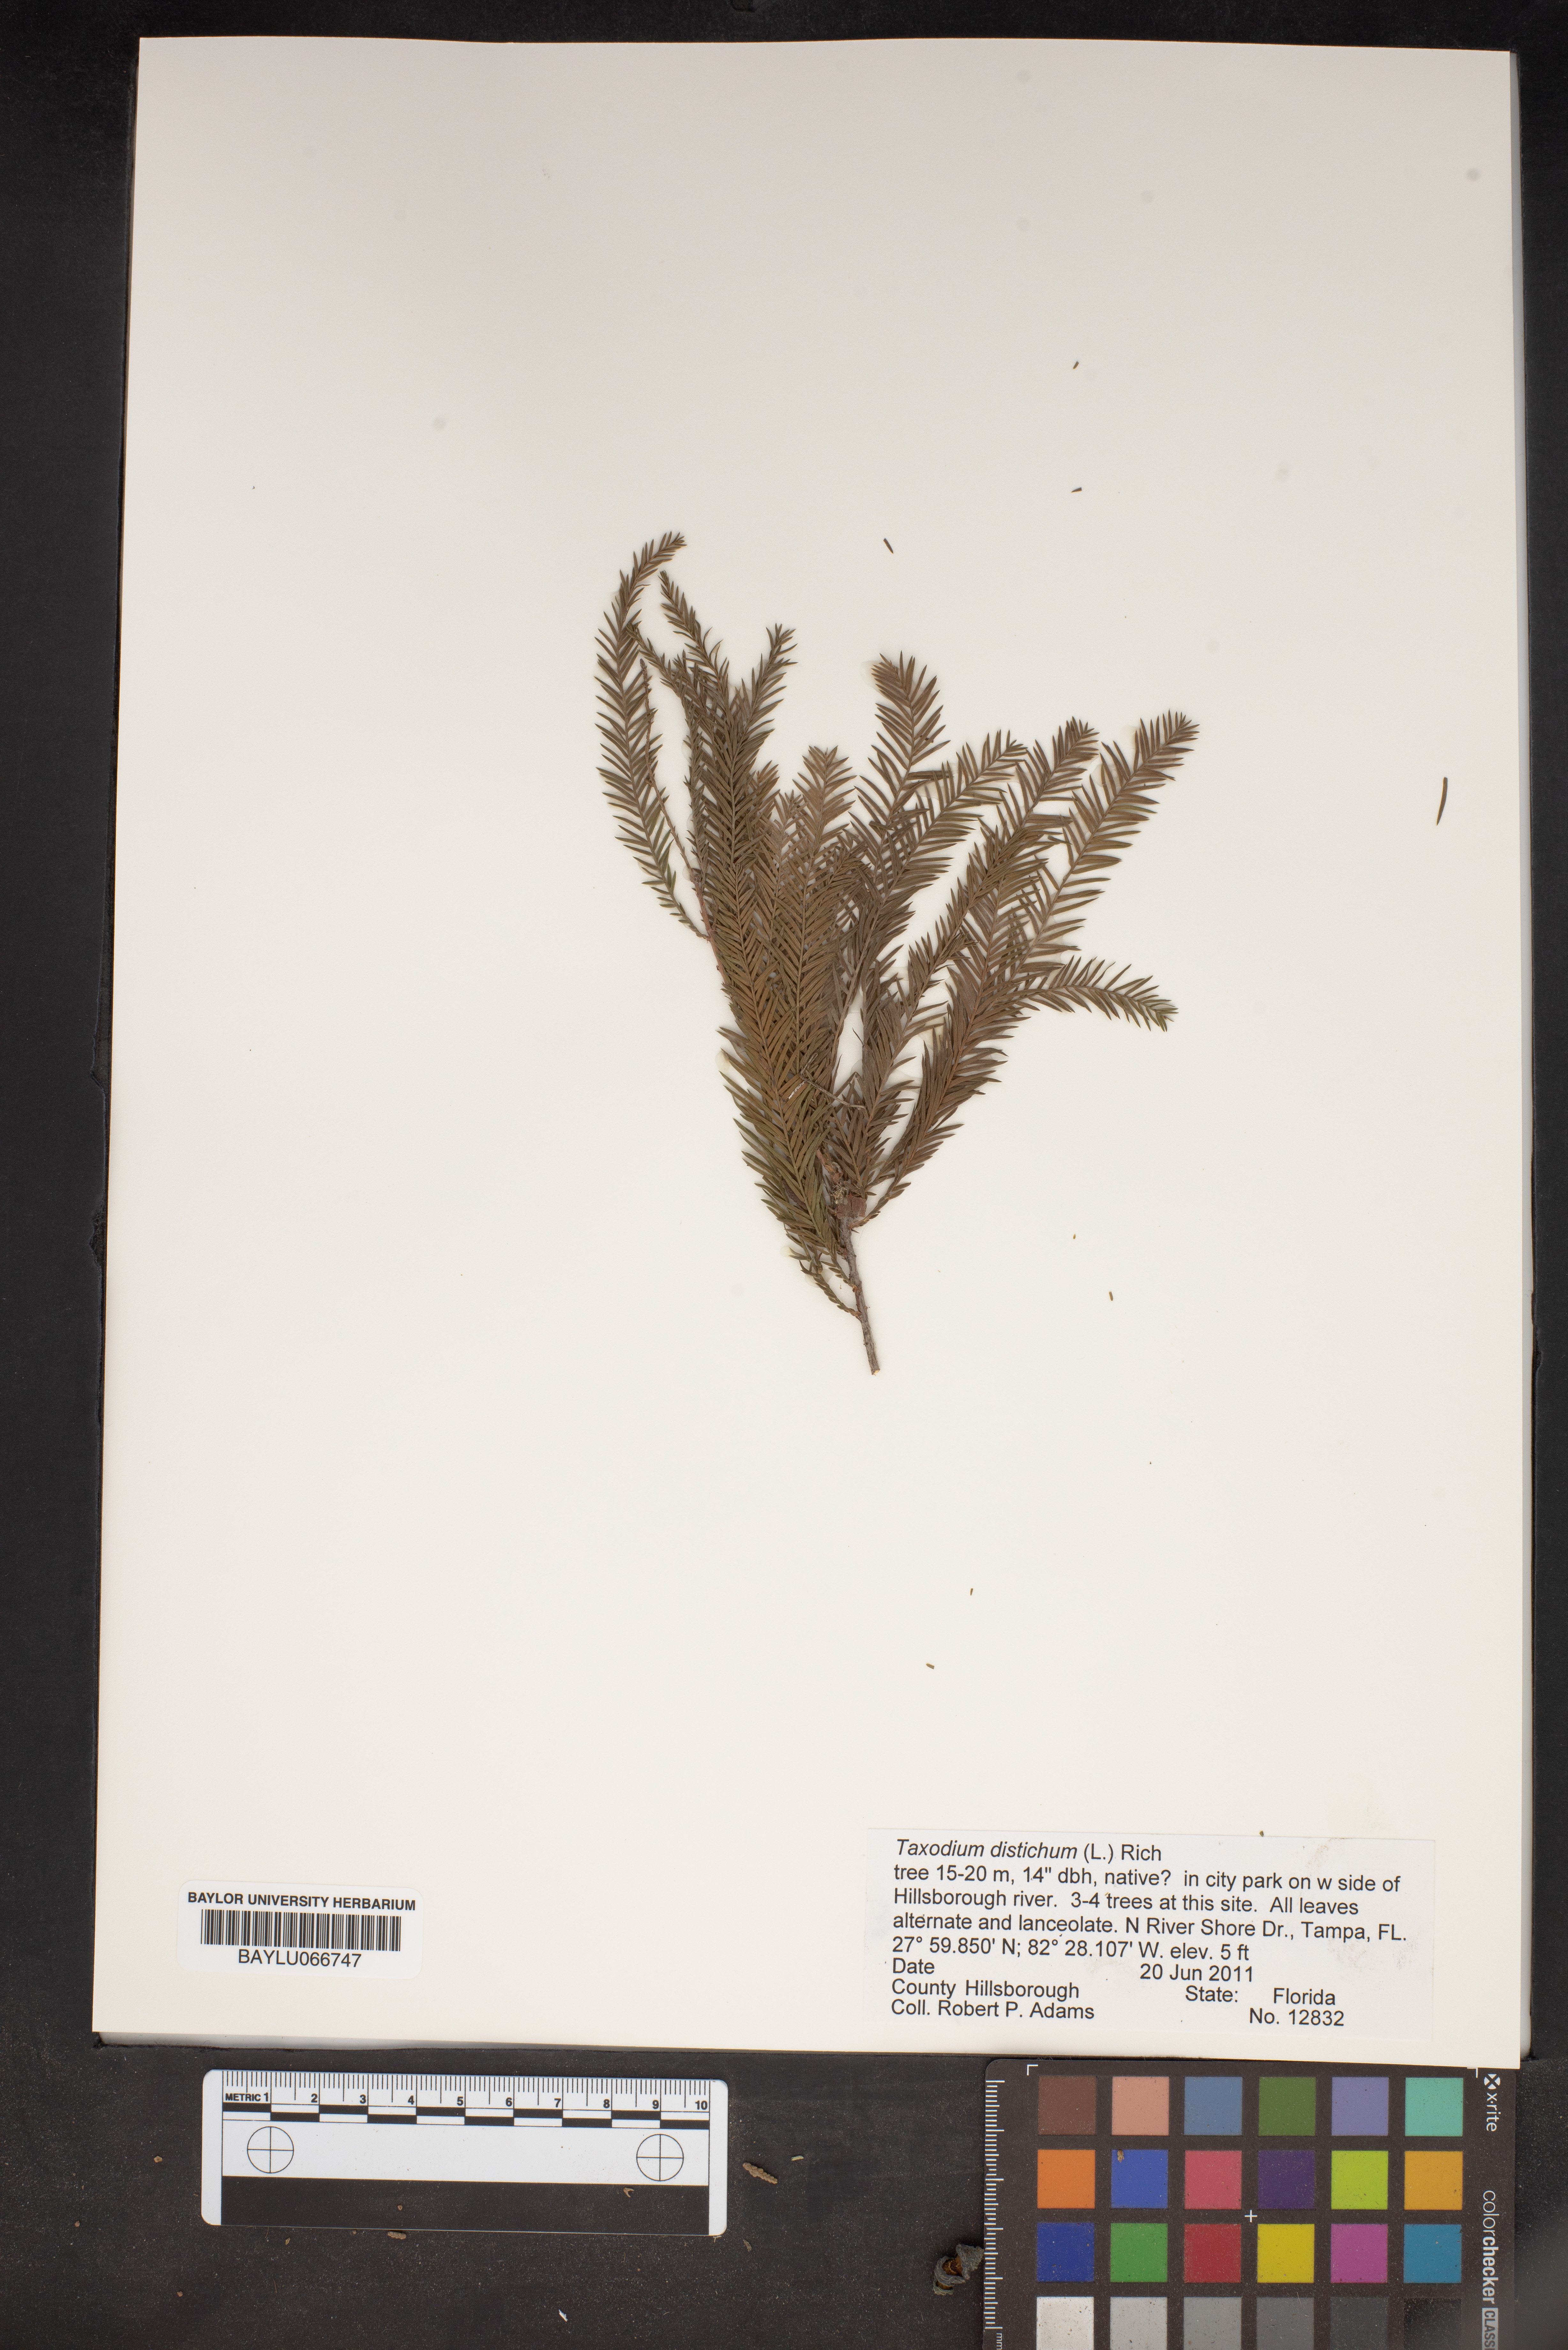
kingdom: Plantae
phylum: Tracheophyta
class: Pinopsida
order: Pinales
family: Cupressaceae
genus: Taxodium
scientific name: Taxodium distichum
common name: Bald cypress
